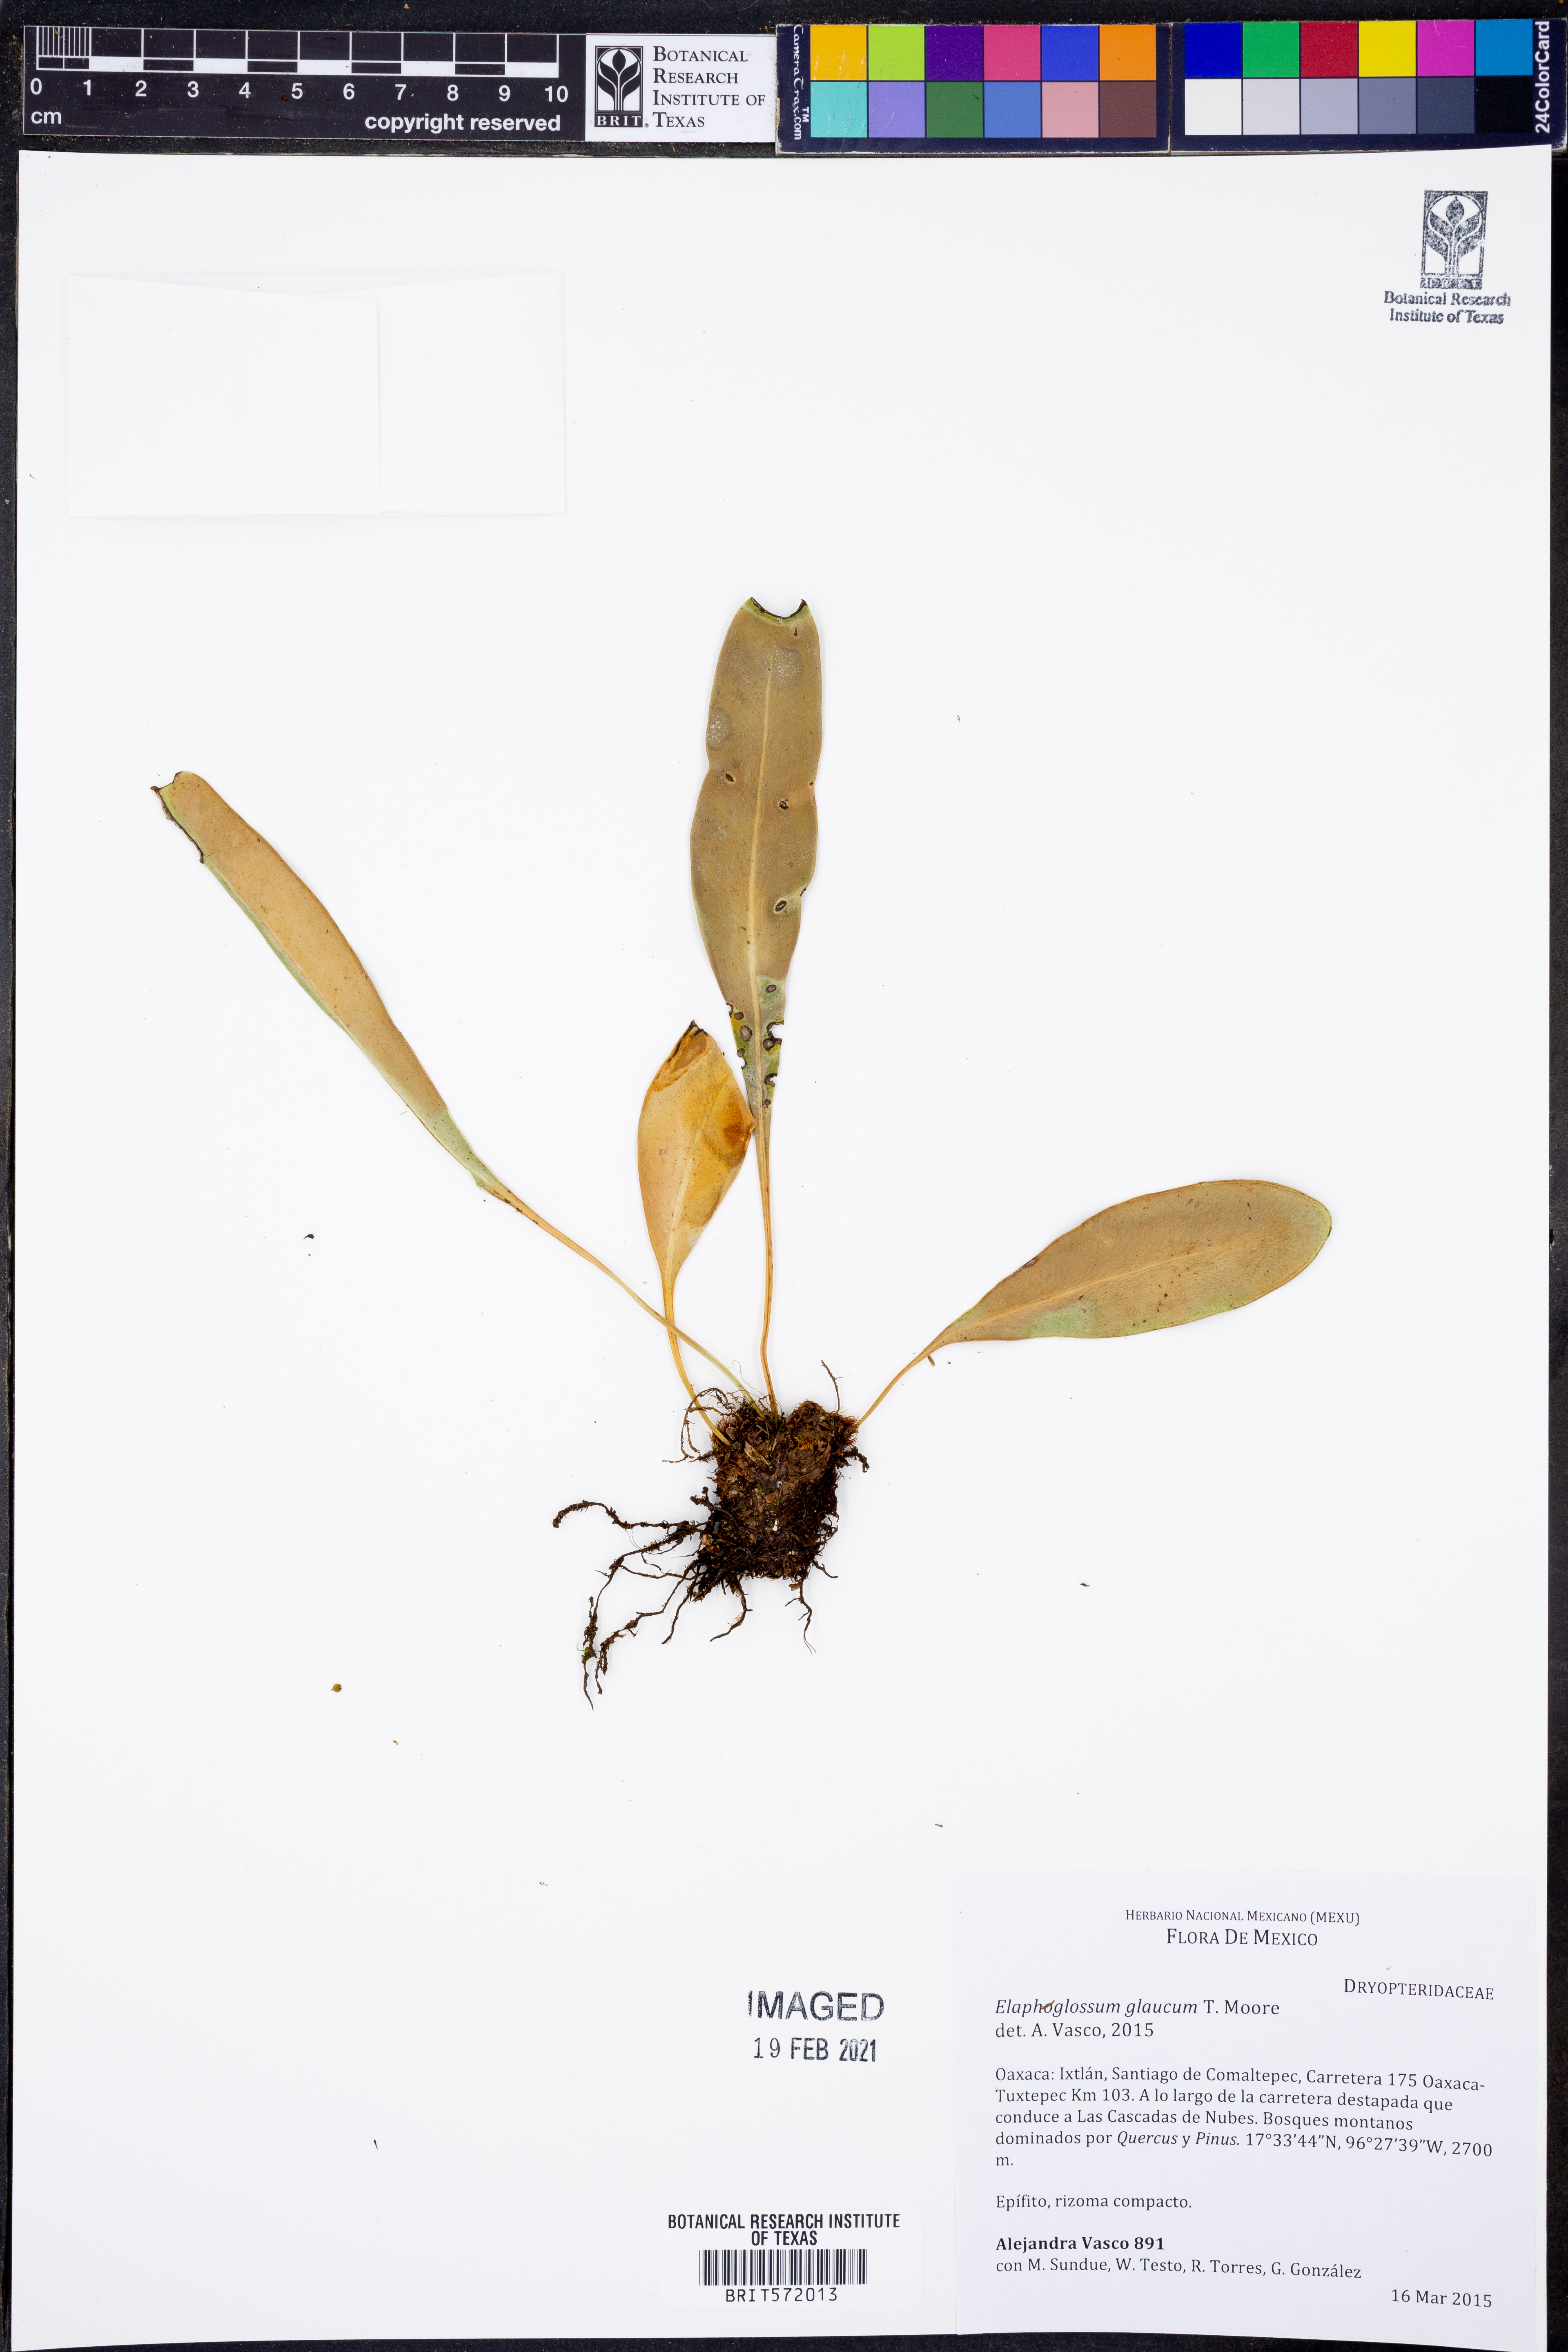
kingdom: Plantae
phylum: Tracheophyta
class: Polypodiopsida
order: Polypodiales
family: Dryopteridaceae
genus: Elaphoglossum
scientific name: Elaphoglossum glaucum
